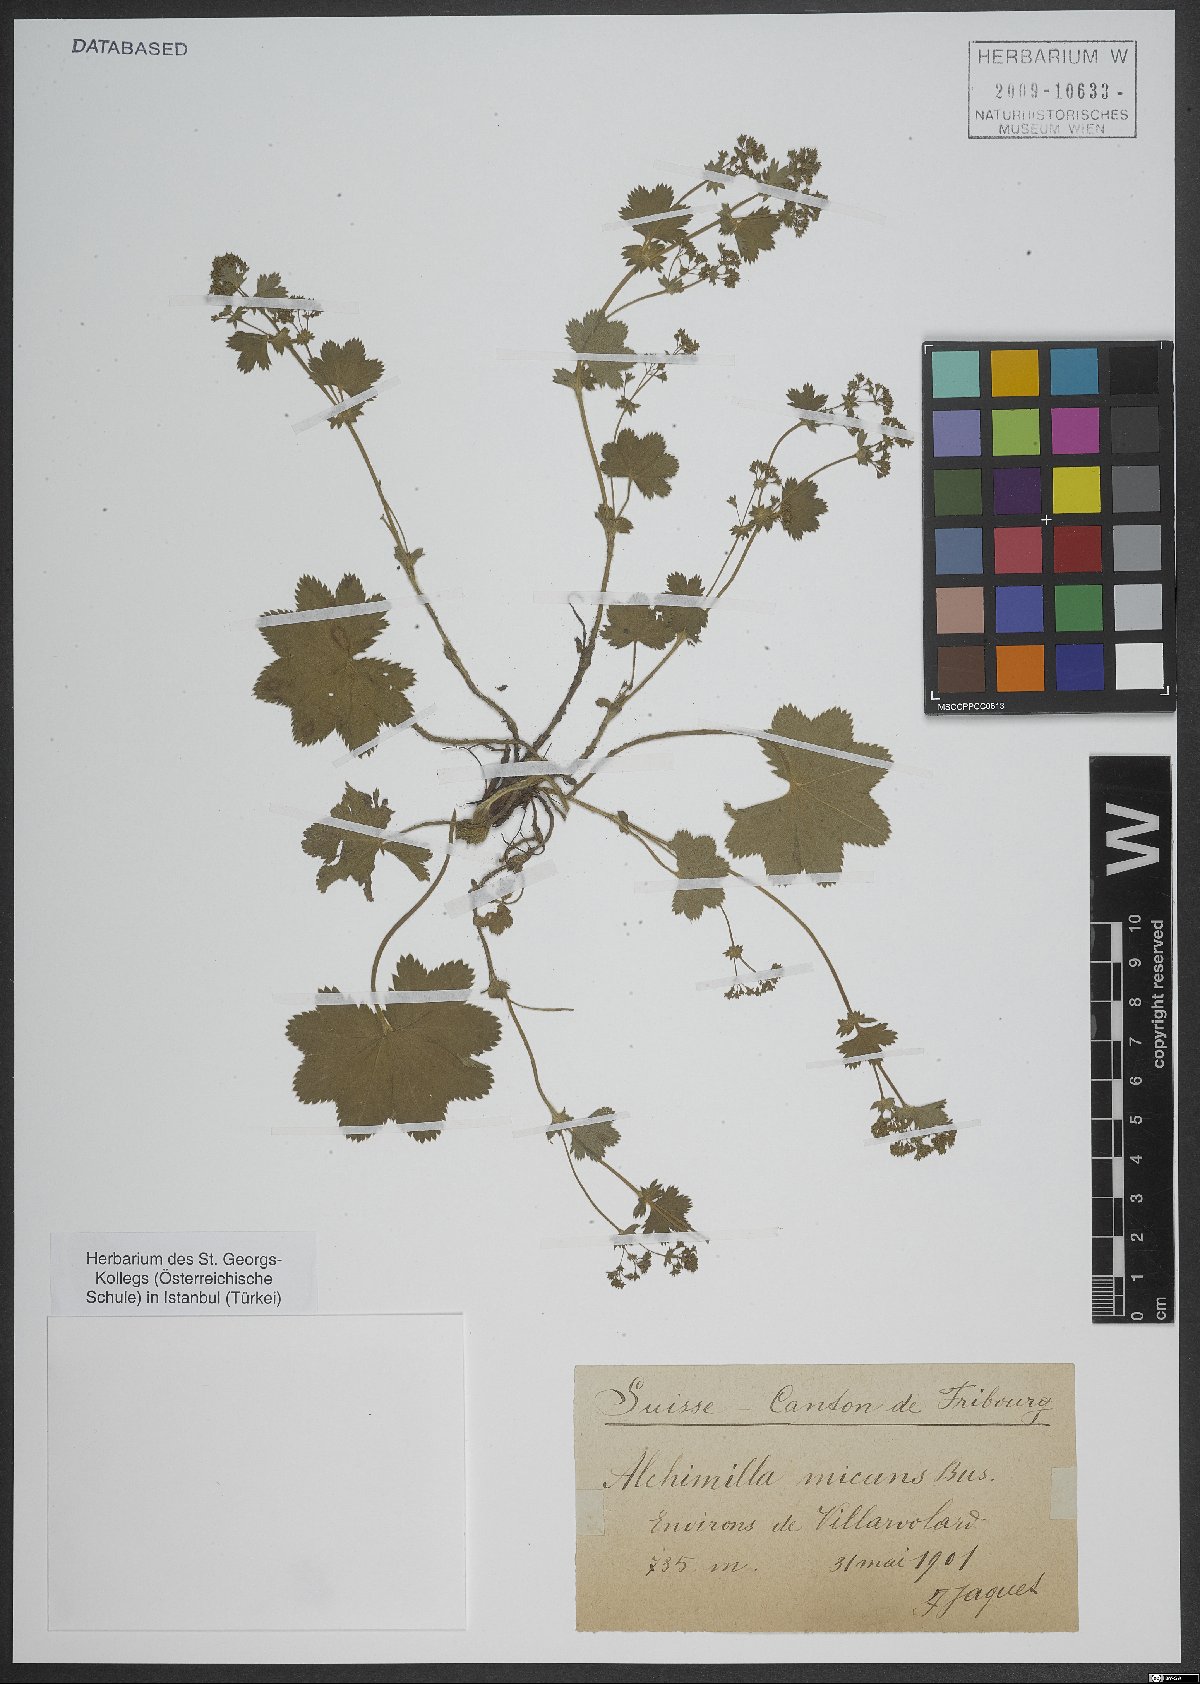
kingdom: Plantae
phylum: Tracheophyta
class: Magnoliopsida
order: Rosales
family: Rosaceae
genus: Alchemilla
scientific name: Alchemilla micans
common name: Gleaming lady's mantle
